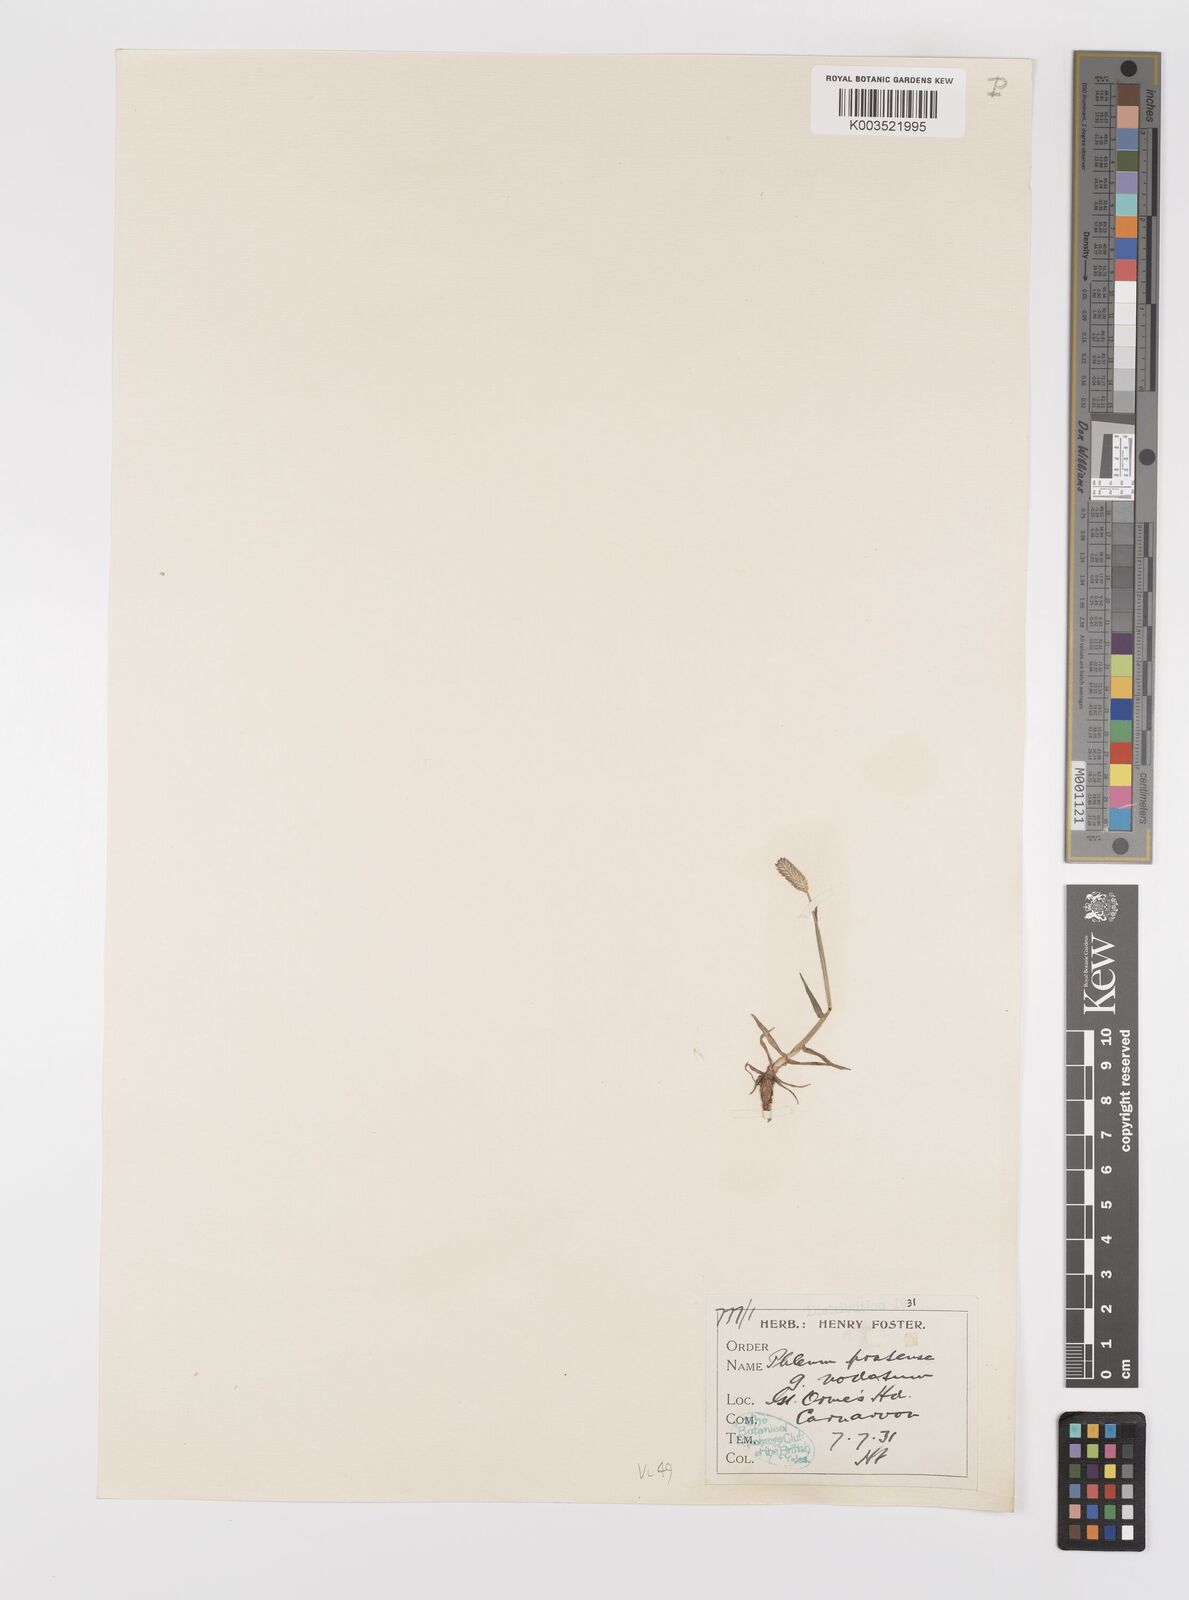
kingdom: Plantae
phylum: Tracheophyta
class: Liliopsida
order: Poales
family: Poaceae
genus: Phleum
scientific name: Phleum bertolonii
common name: Smaller cat's-tail
